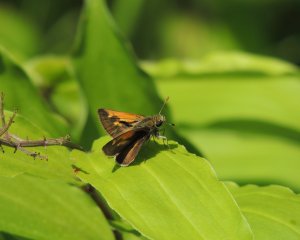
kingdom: Animalia
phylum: Arthropoda
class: Insecta
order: Lepidoptera
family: Hesperiidae
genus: Polites
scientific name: Polites
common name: Long Dash Skipper
